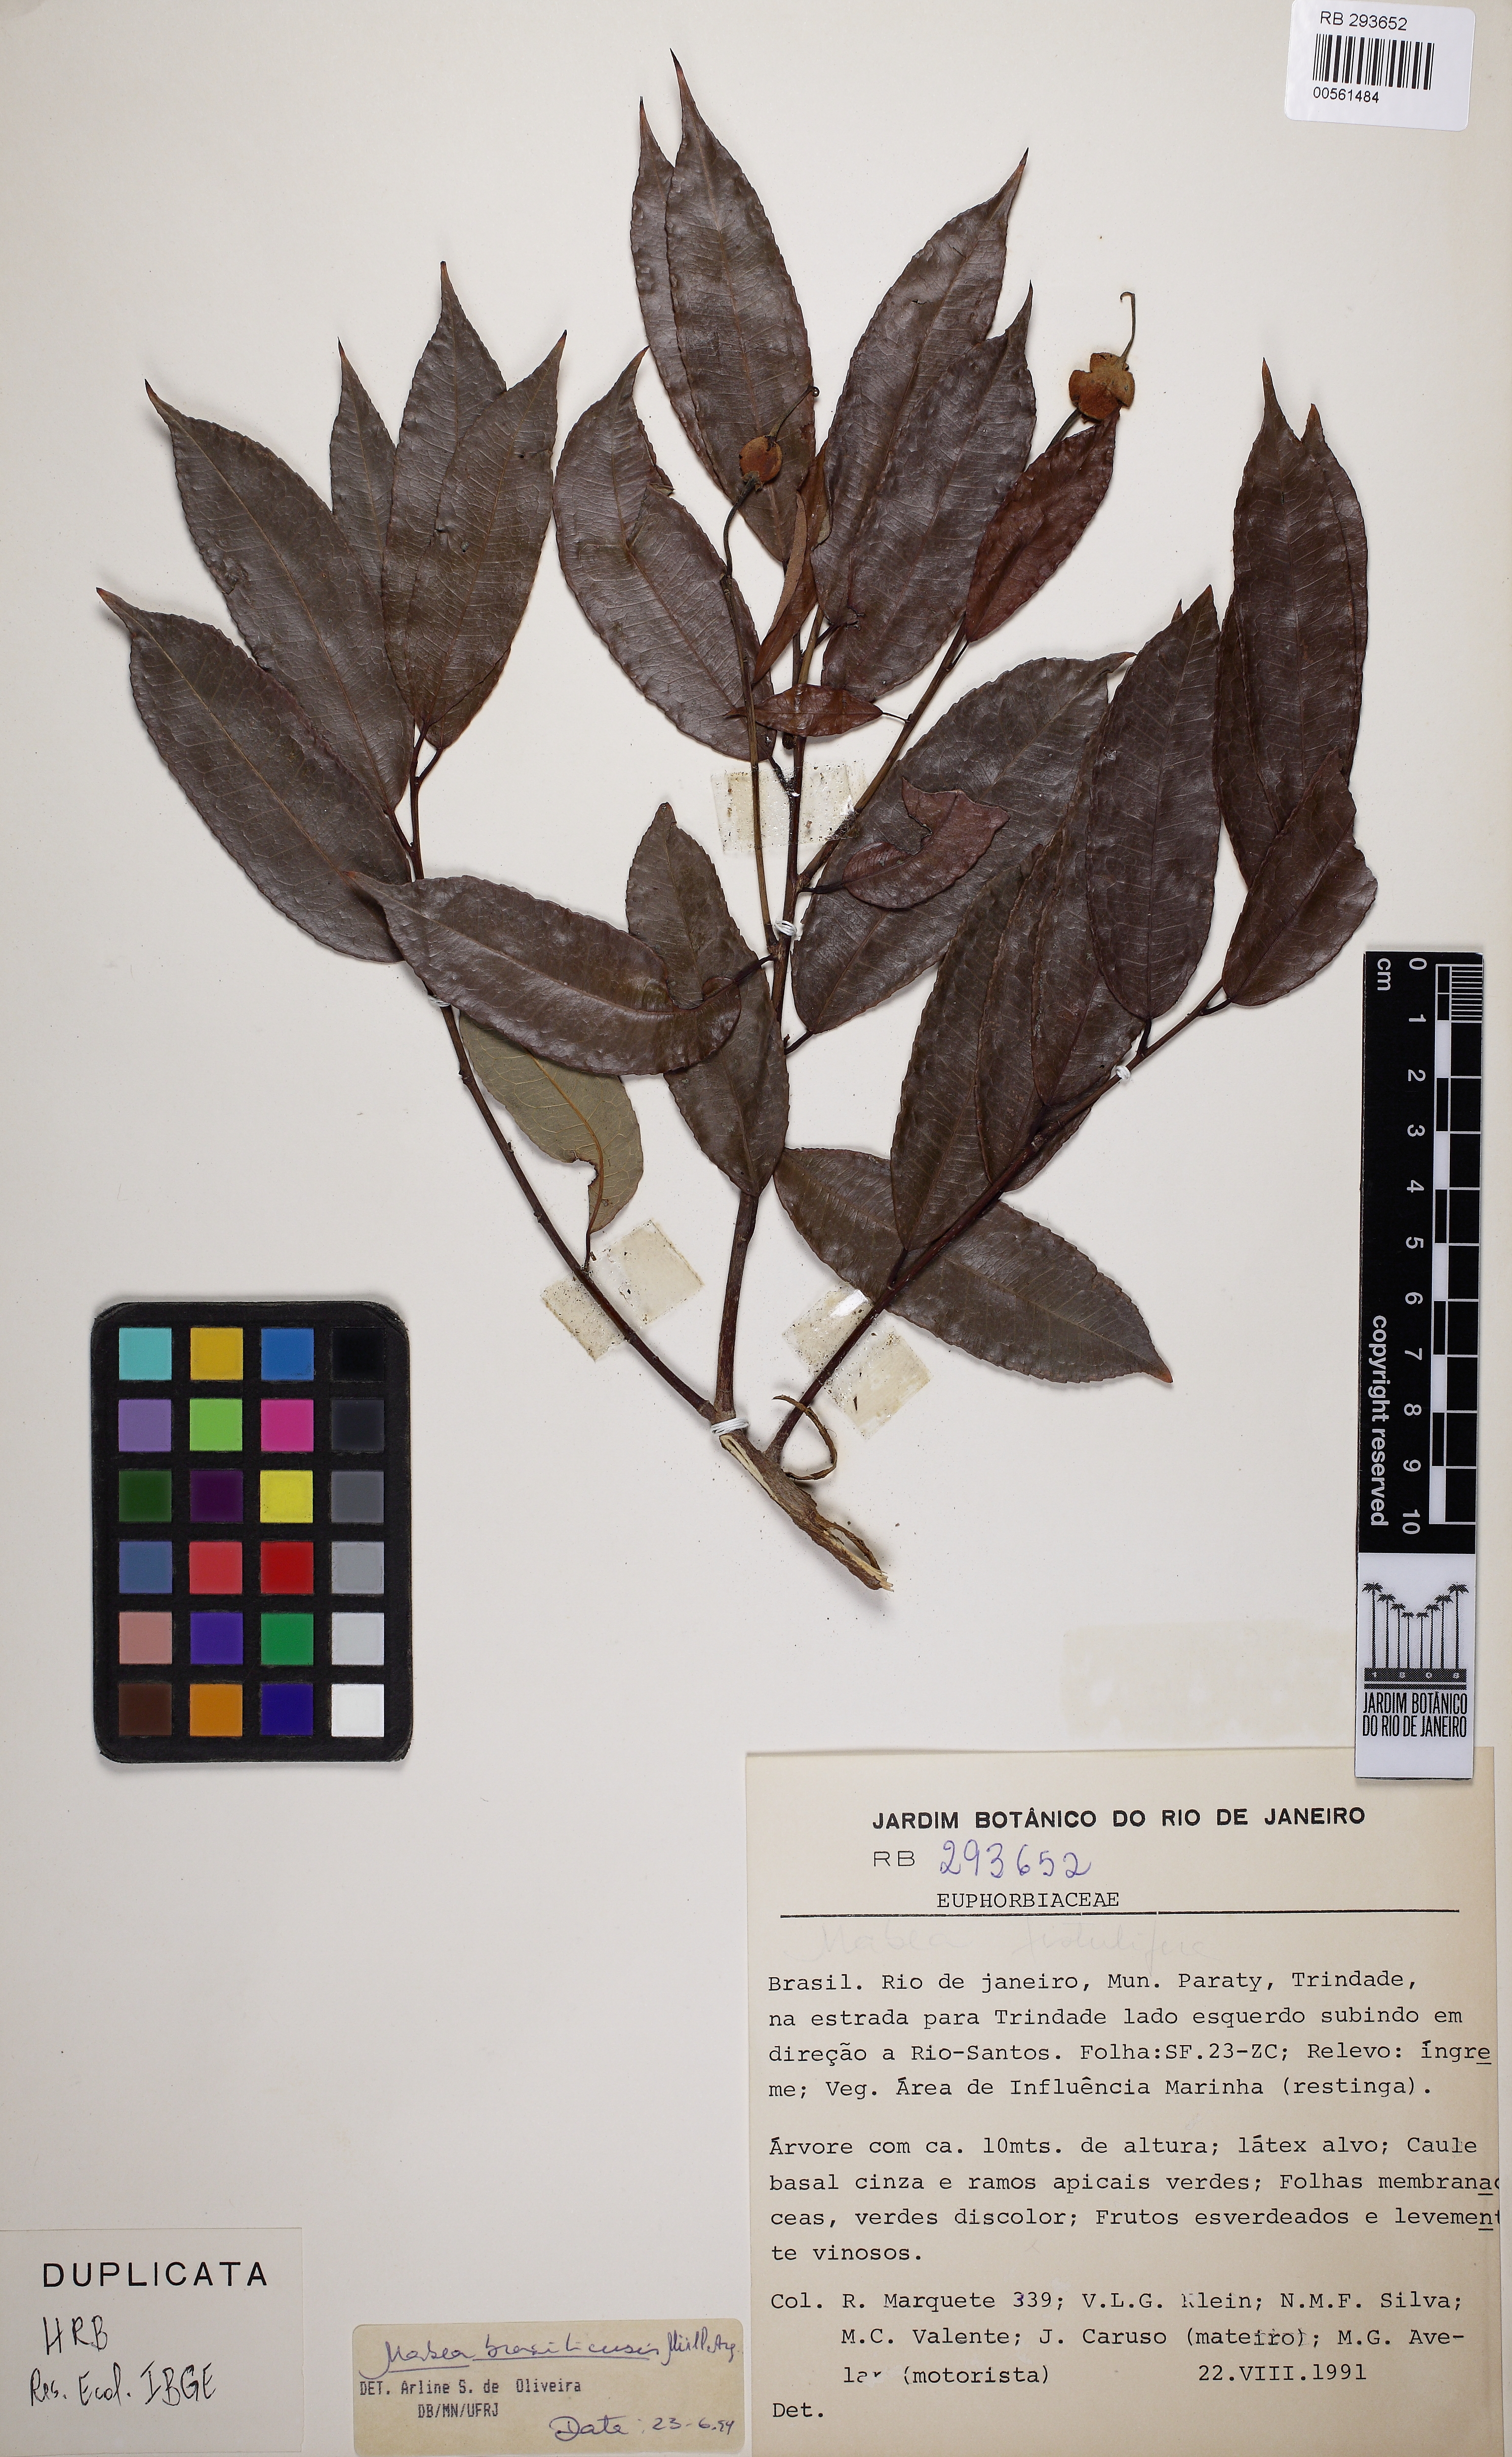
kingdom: Plantae
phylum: Tracheophyta
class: Magnoliopsida
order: Malpighiales
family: Euphorbiaceae
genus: Mabea
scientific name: Mabea piriri
